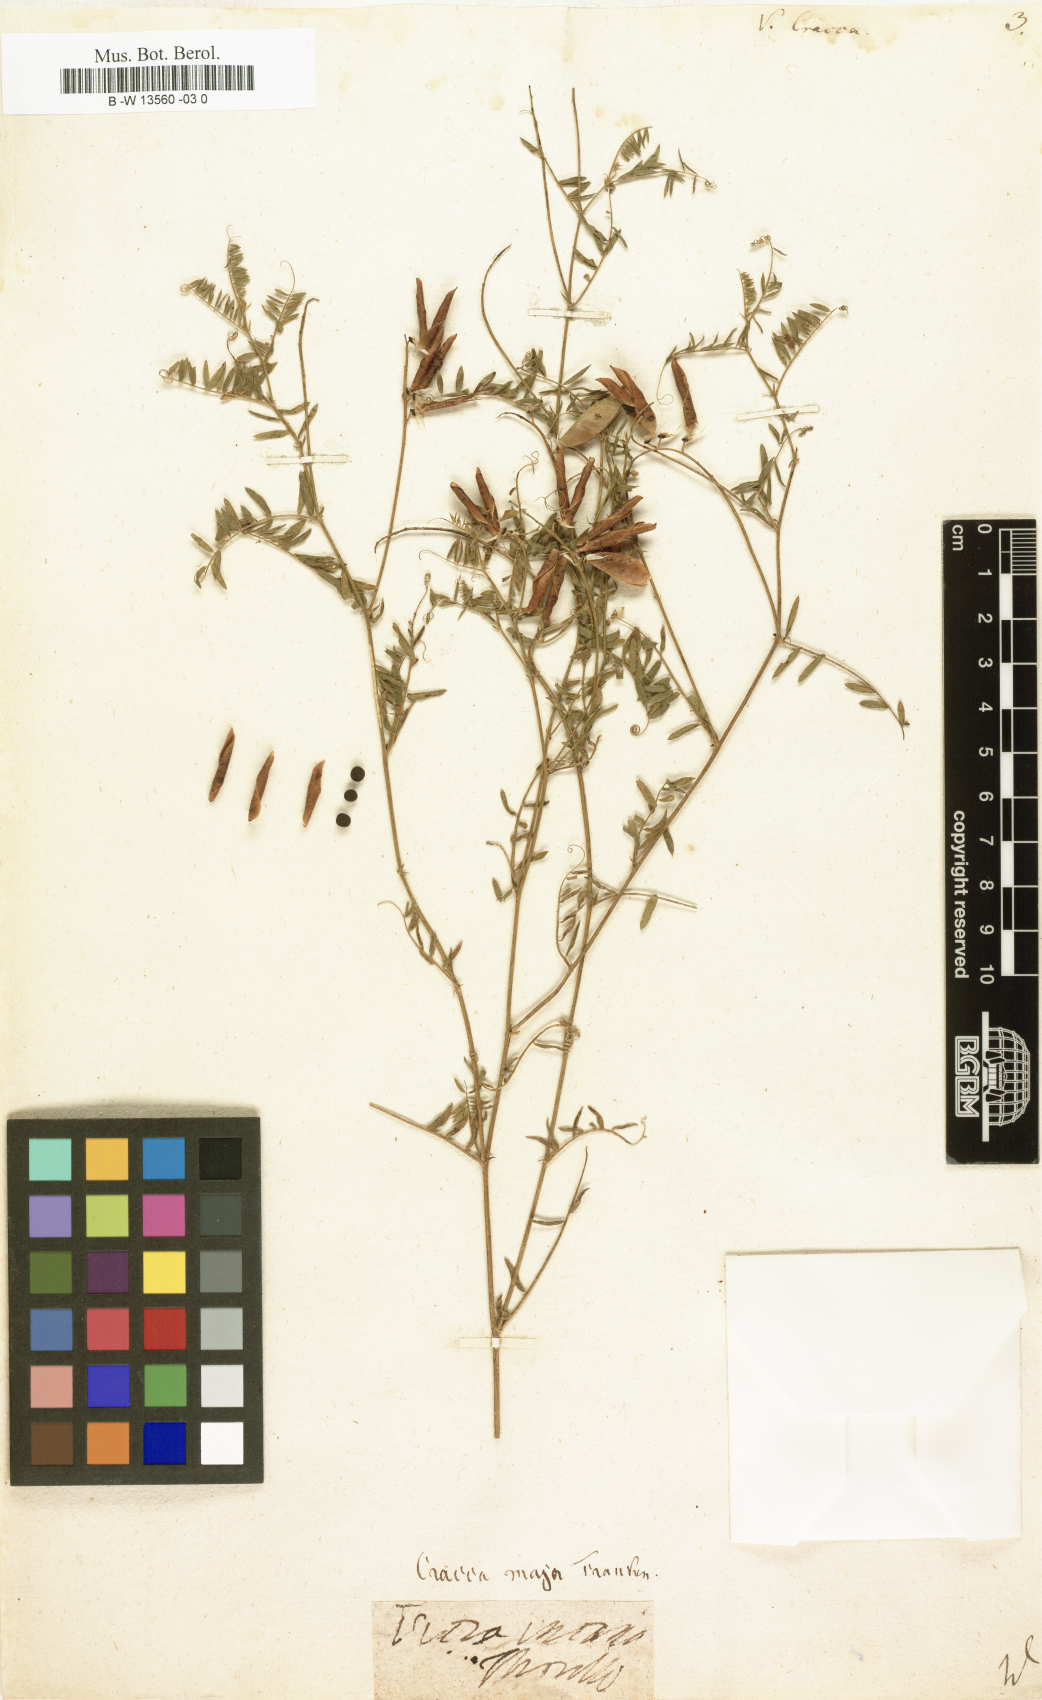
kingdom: Plantae
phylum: Tracheophyta
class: Magnoliopsida
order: Fabales
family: Fabaceae
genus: Vicia
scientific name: Vicia cracca
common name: Bird vetch
